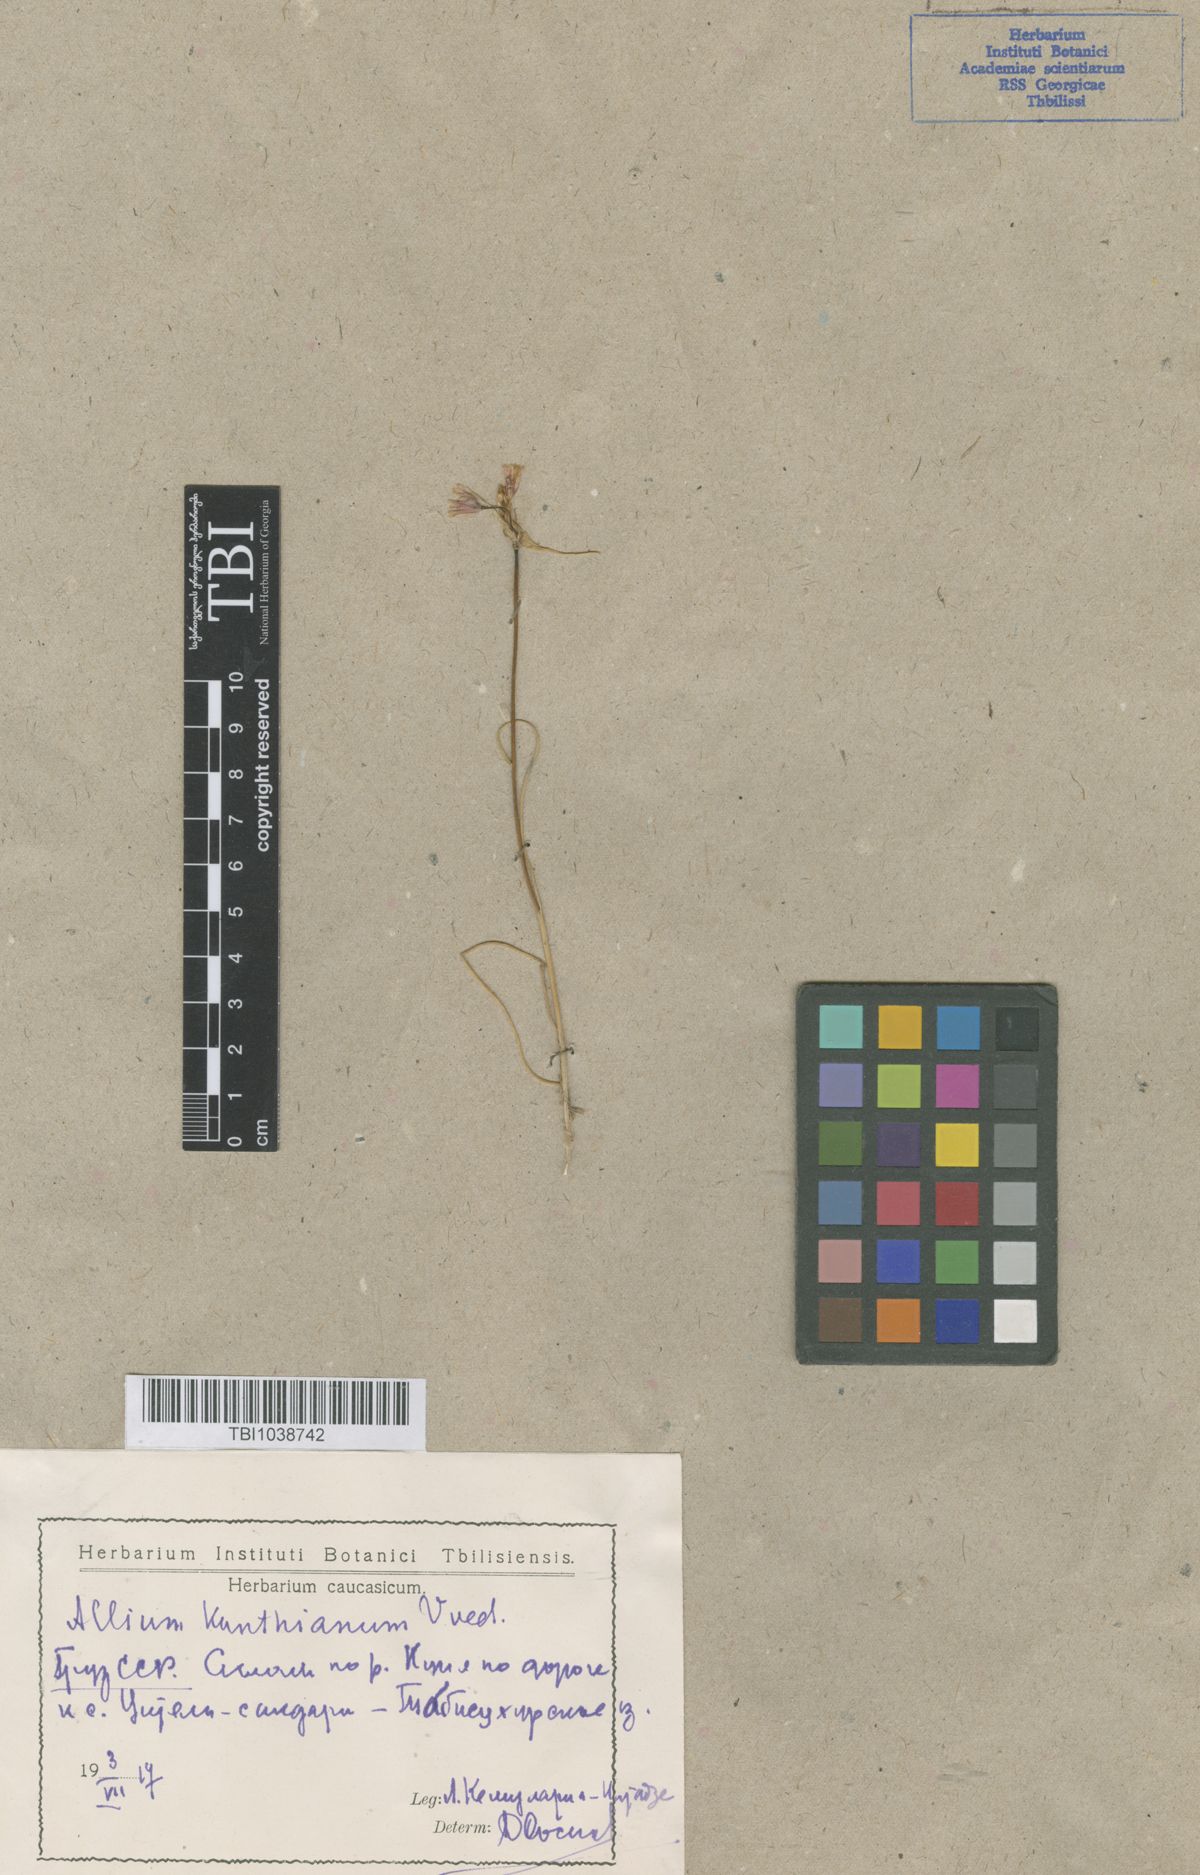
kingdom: Plantae
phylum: Tracheophyta
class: Liliopsida
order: Asparagales
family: Amaryllidaceae
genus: Allium
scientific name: Allium kunthianum
